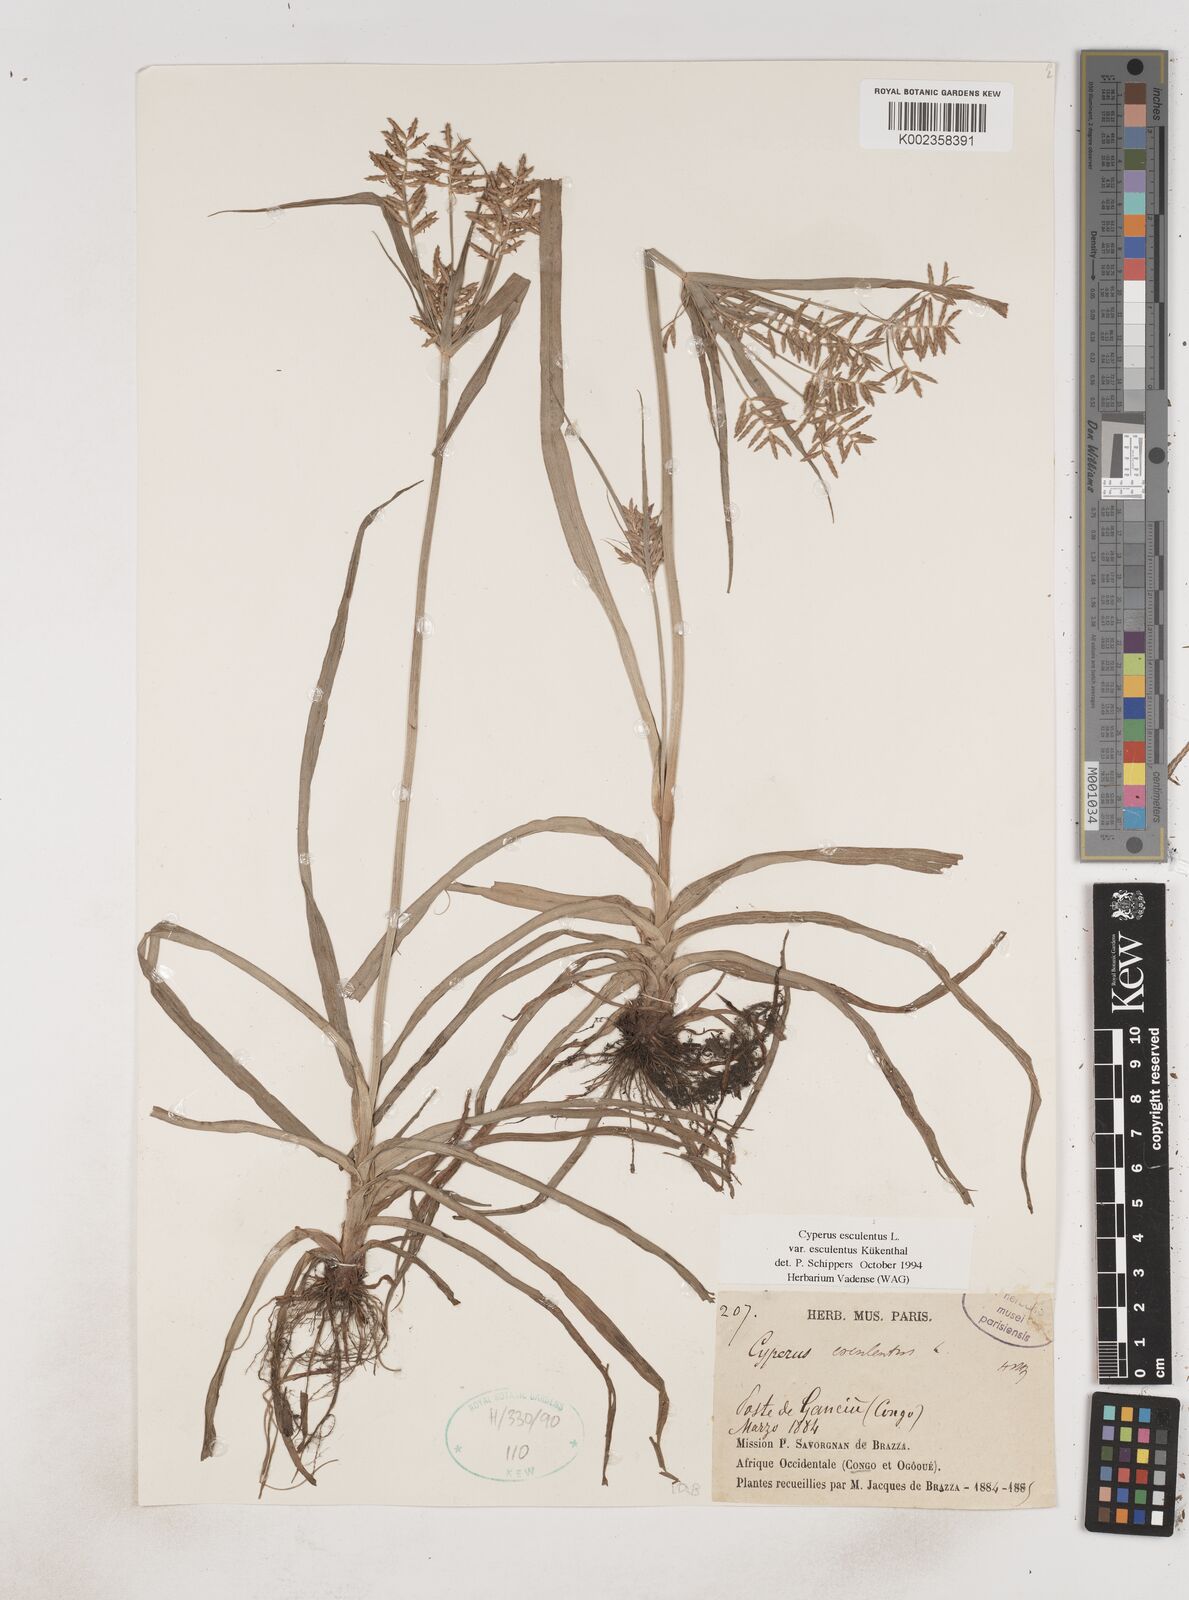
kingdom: Plantae
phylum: Tracheophyta
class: Liliopsida
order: Poales
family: Cyperaceae
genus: Cyperus
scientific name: Cyperus esculentus
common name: Yellow nutsedge
